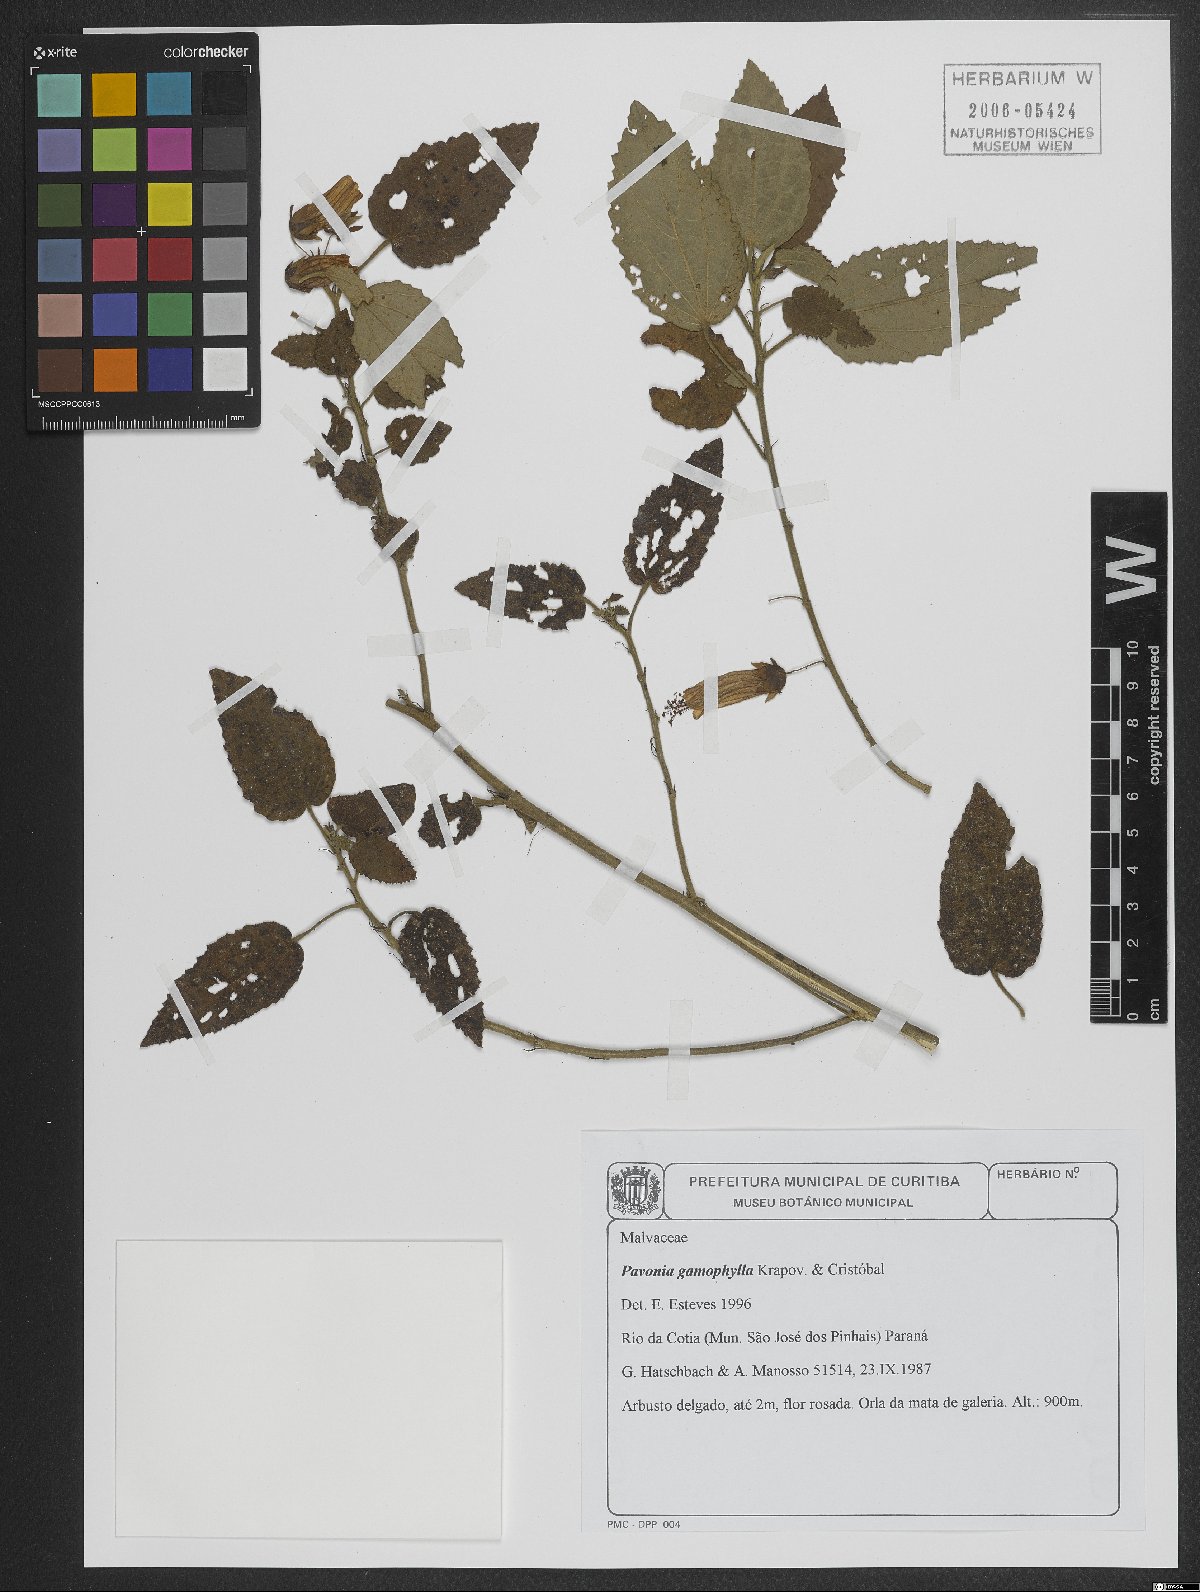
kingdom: Plantae
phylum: Tracheophyta
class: Magnoliopsida
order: Malvales
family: Malvaceae
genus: Pavonia
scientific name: Pavonia commutata
